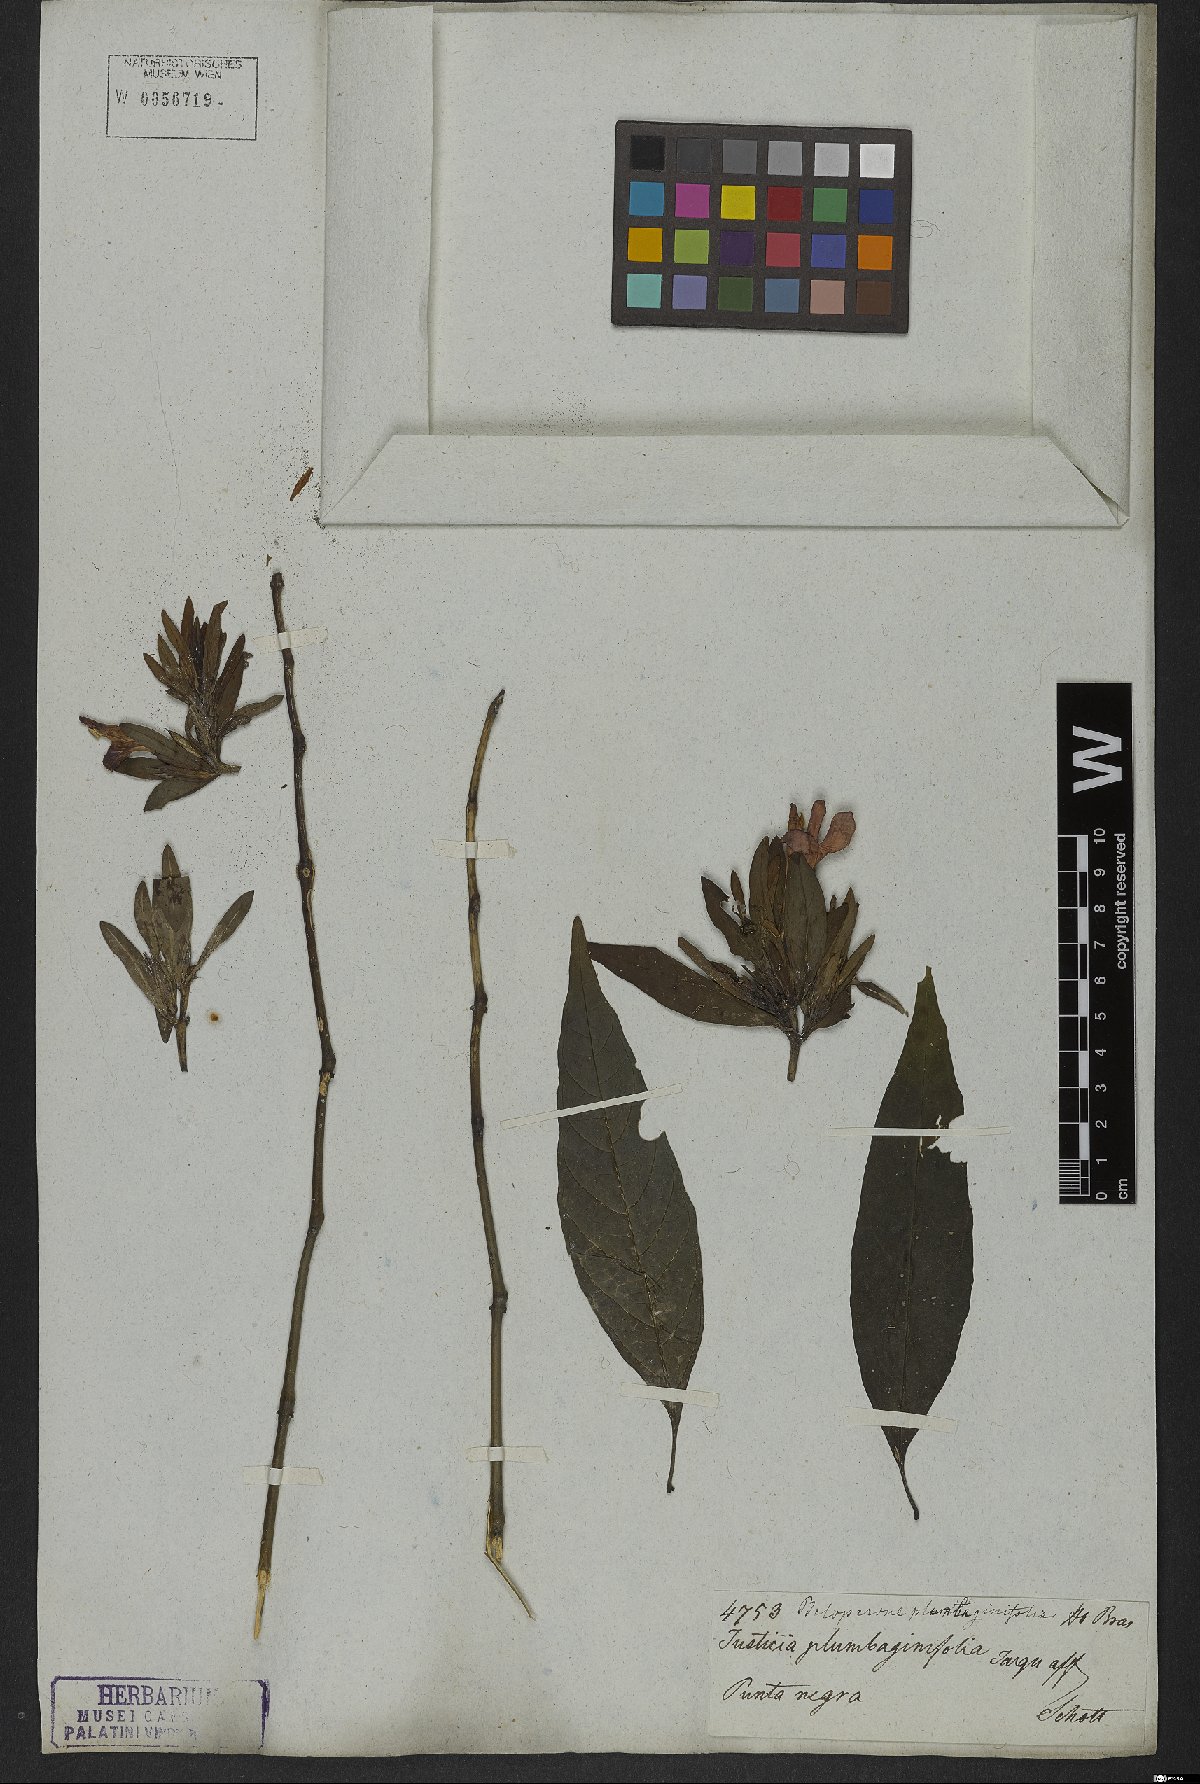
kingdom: Plantae
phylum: Tracheophyta
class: Magnoliopsida
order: Lamiales
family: Acanthaceae
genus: Justicia
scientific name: Justicia plumbaginifolia
